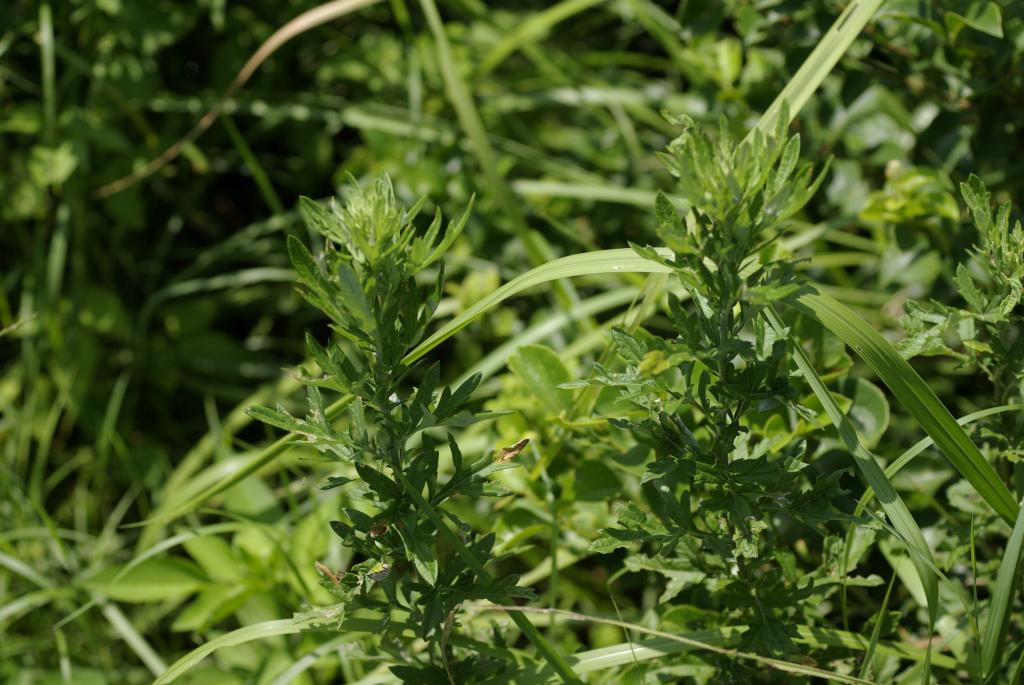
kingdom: Plantae
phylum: Tracheophyta
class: Magnoliopsida
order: Asterales
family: Asteraceae
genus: Artemisia
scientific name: Artemisia indica
